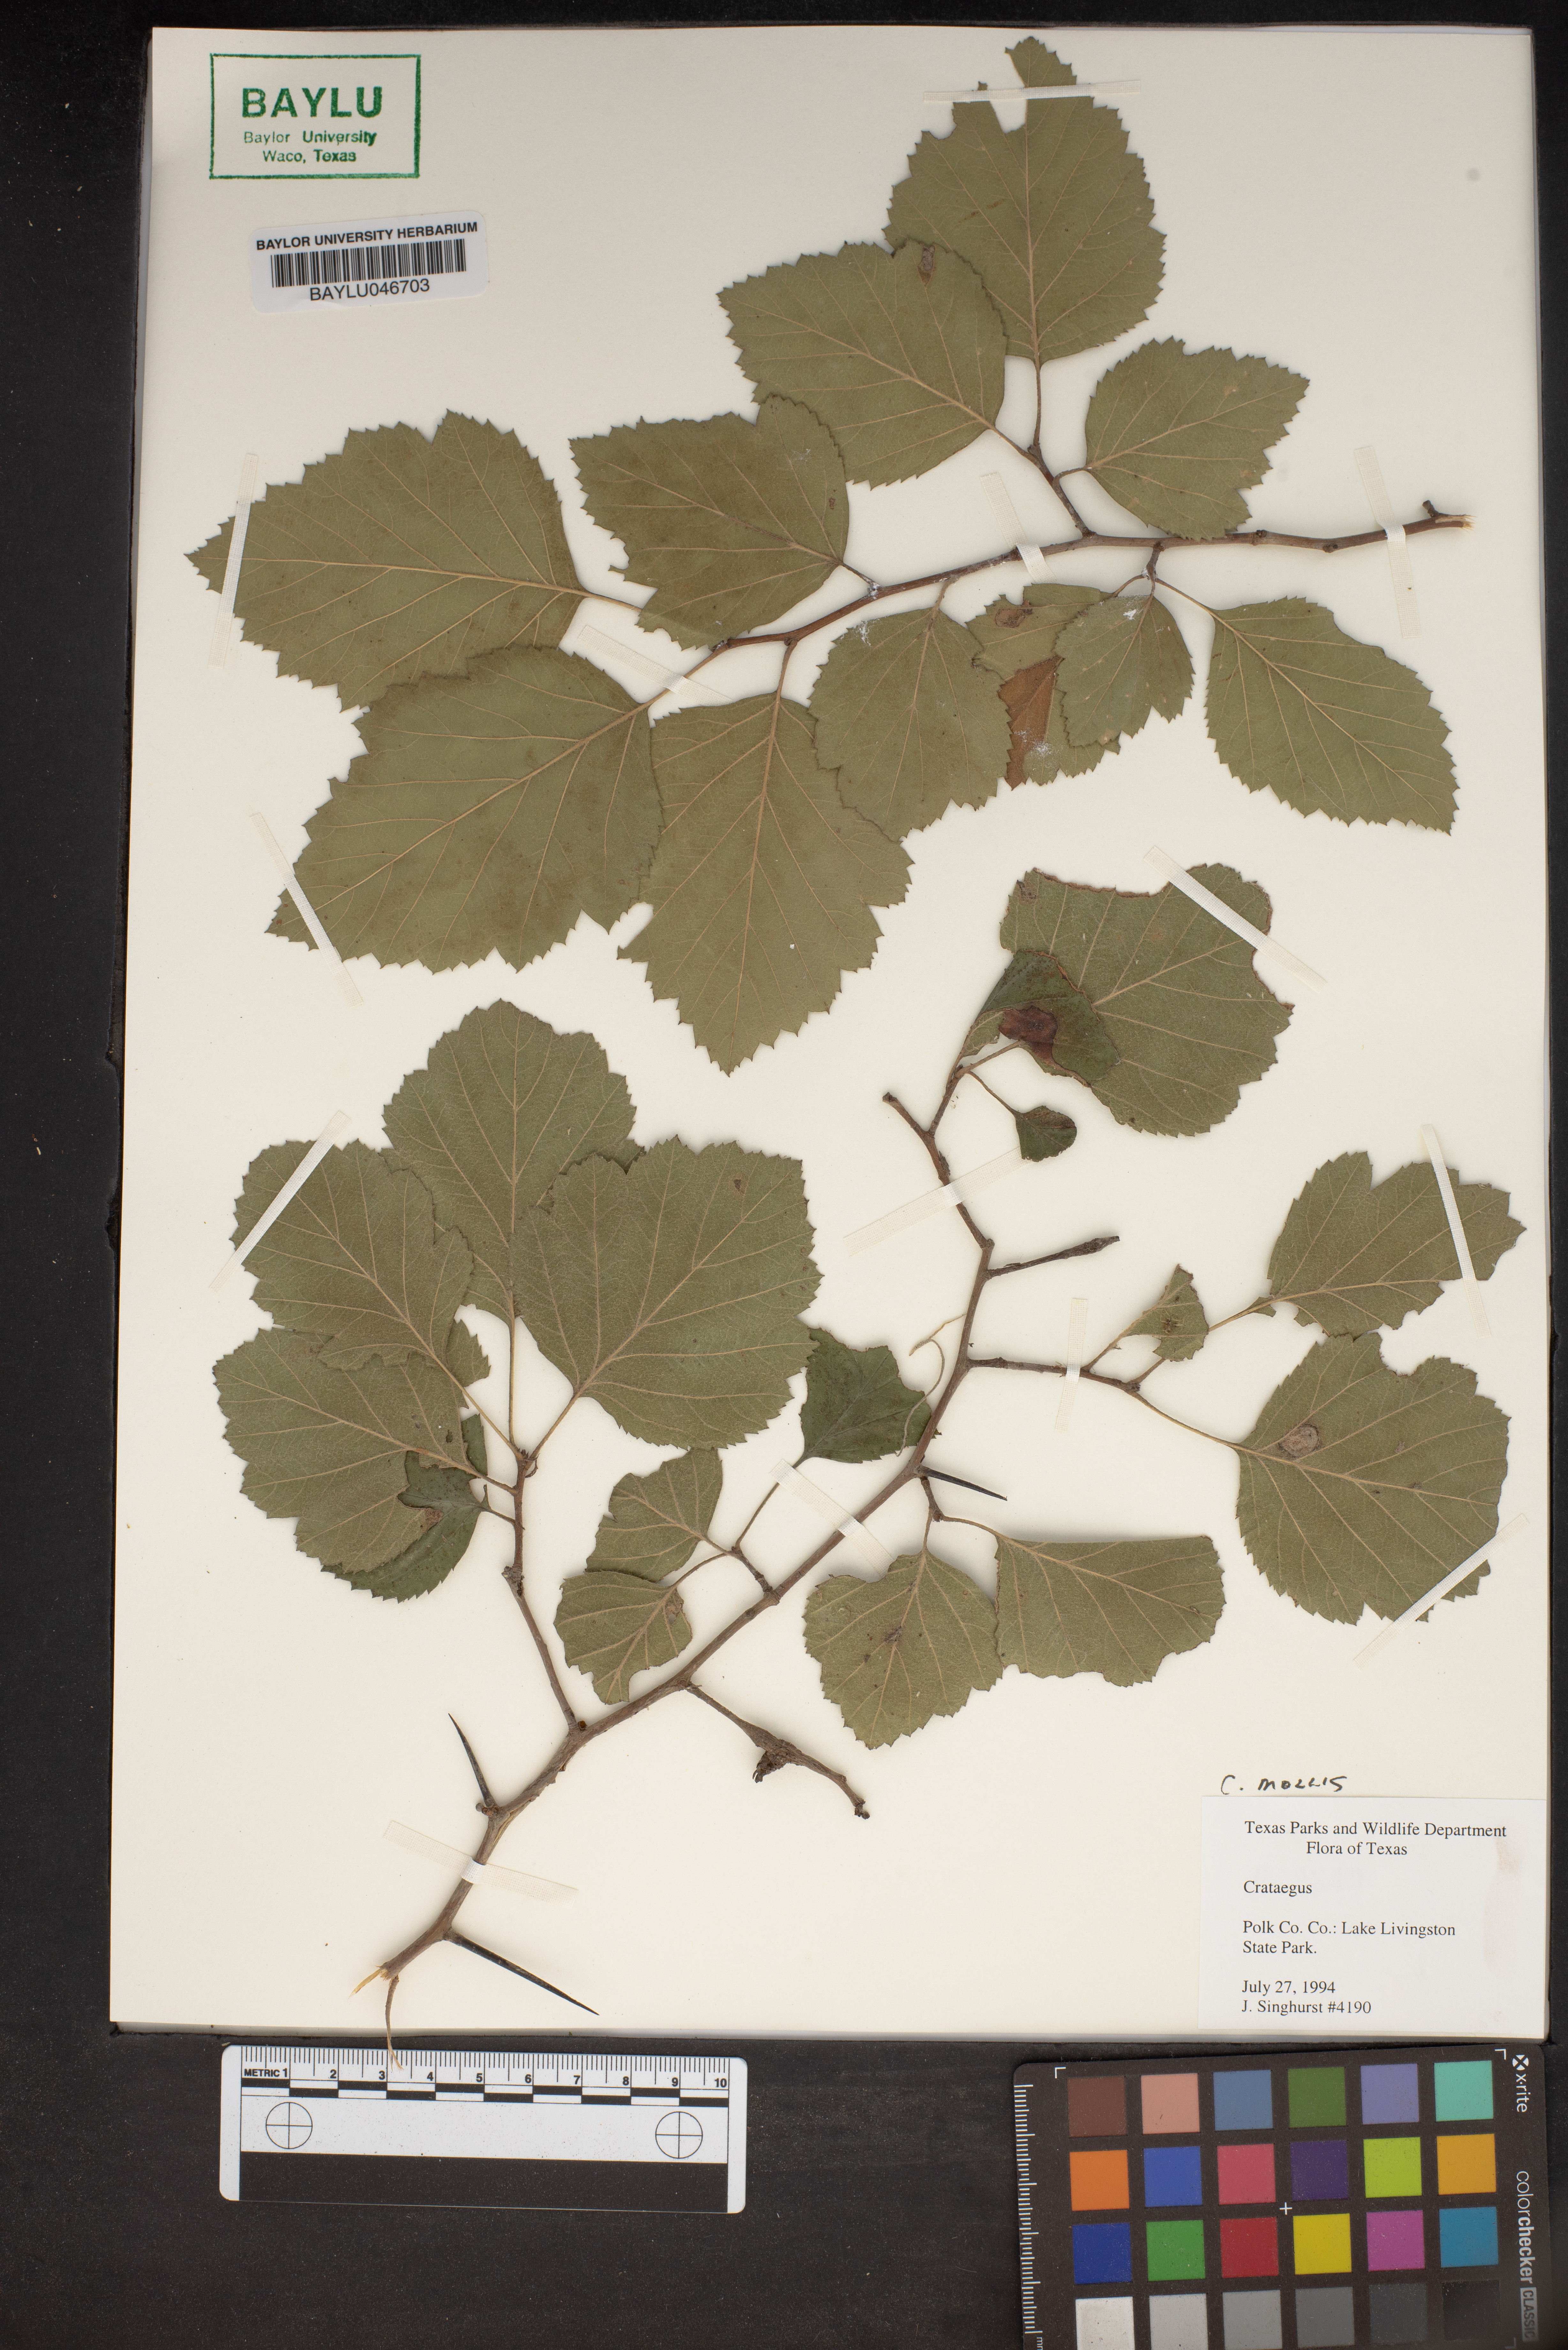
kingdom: Plantae
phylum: Tracheophyta
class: Magnoliopsida
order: Rosales
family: Rosaceae
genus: Crataegus
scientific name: Crataegus
